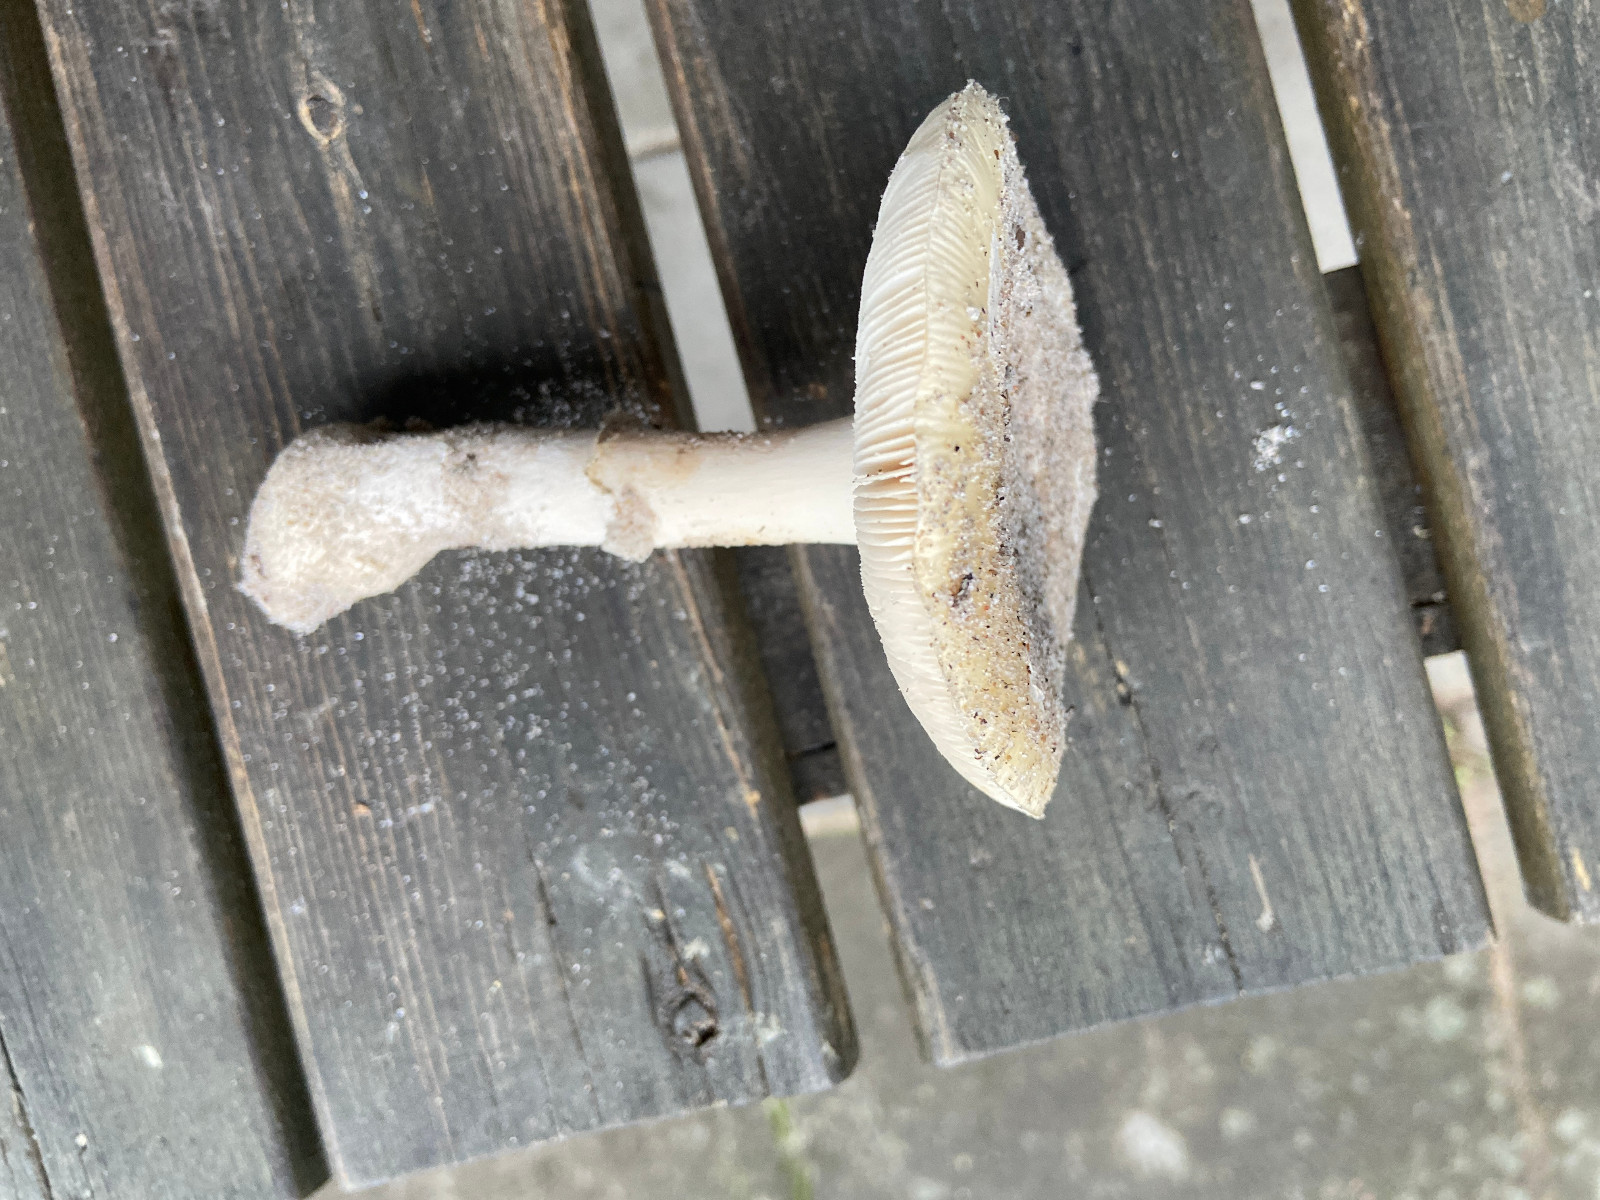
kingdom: Fungi
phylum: Basidiomycota
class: Agaricomycetes
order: Agaricales
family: Amanitaceae
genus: Amanita
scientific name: Amanita gemmata
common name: okkergul fluesvamp
